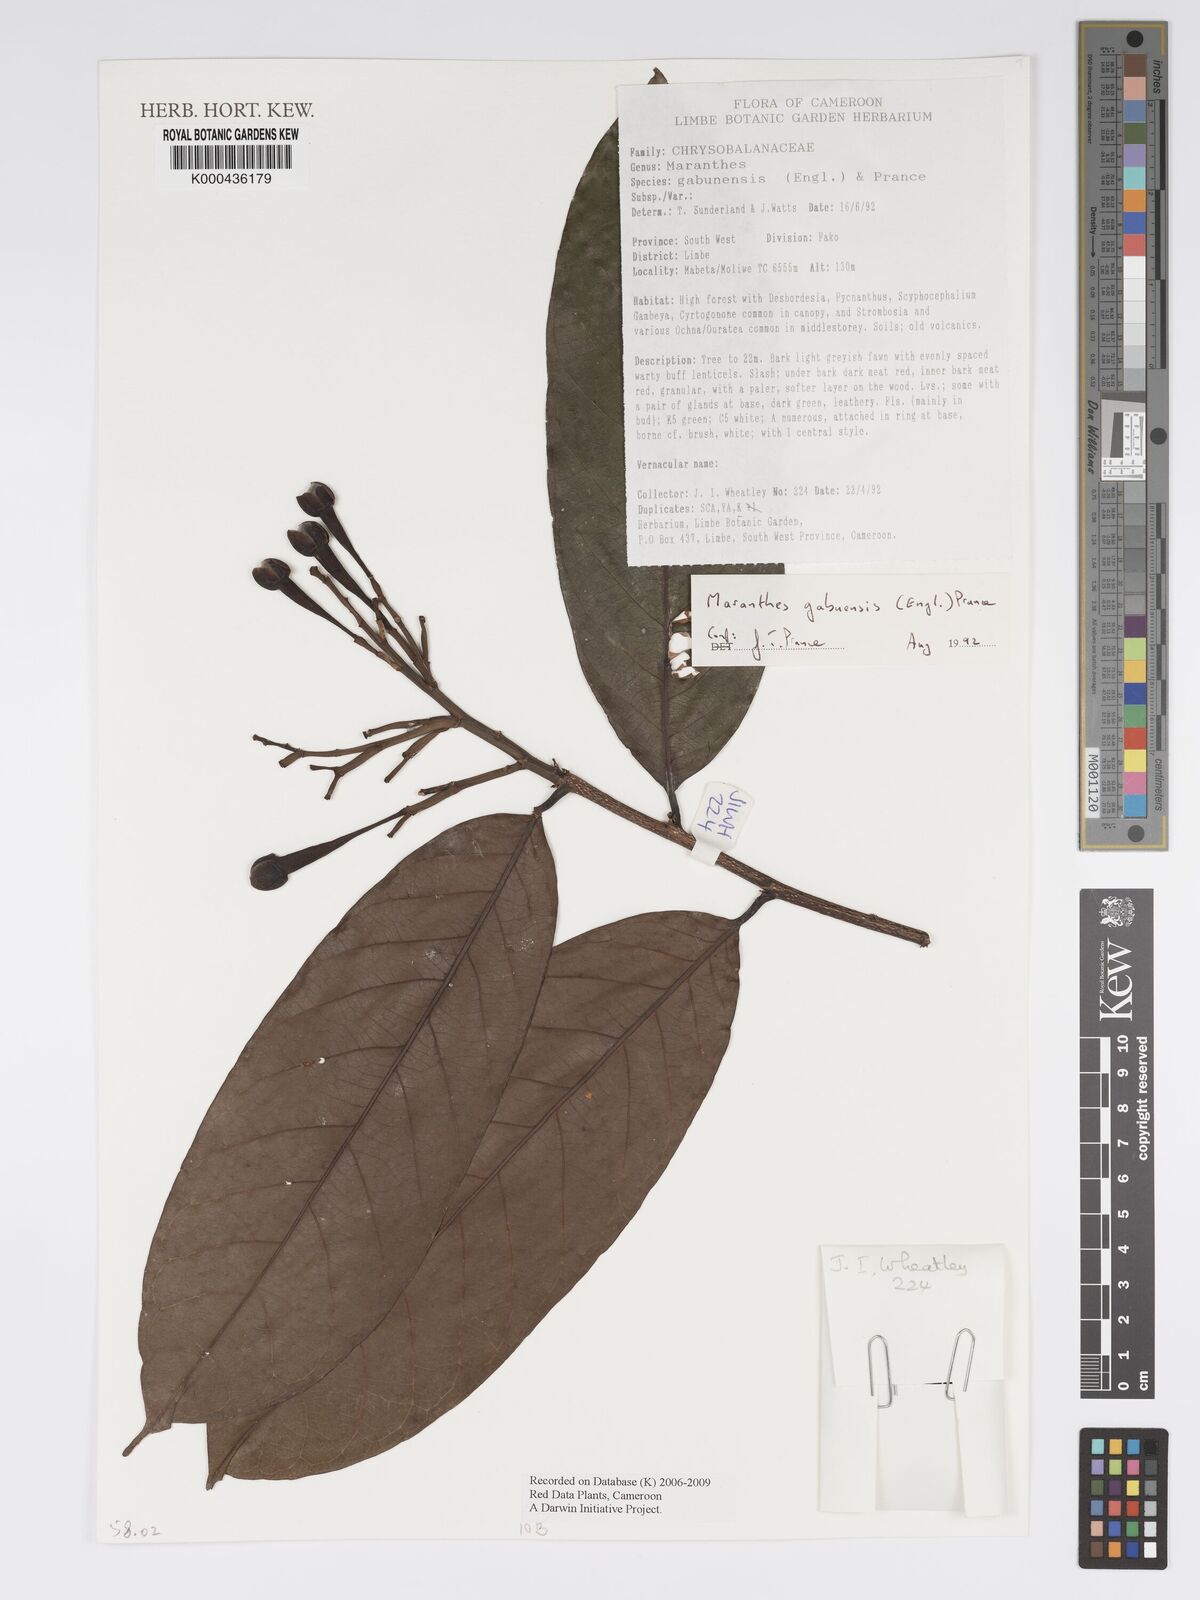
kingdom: Plantae
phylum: Tracheophyta
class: Magnoliopsida
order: Malpighiales
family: Chrysobalanaceae
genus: Maranthes
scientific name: Maranthes gabunensis
